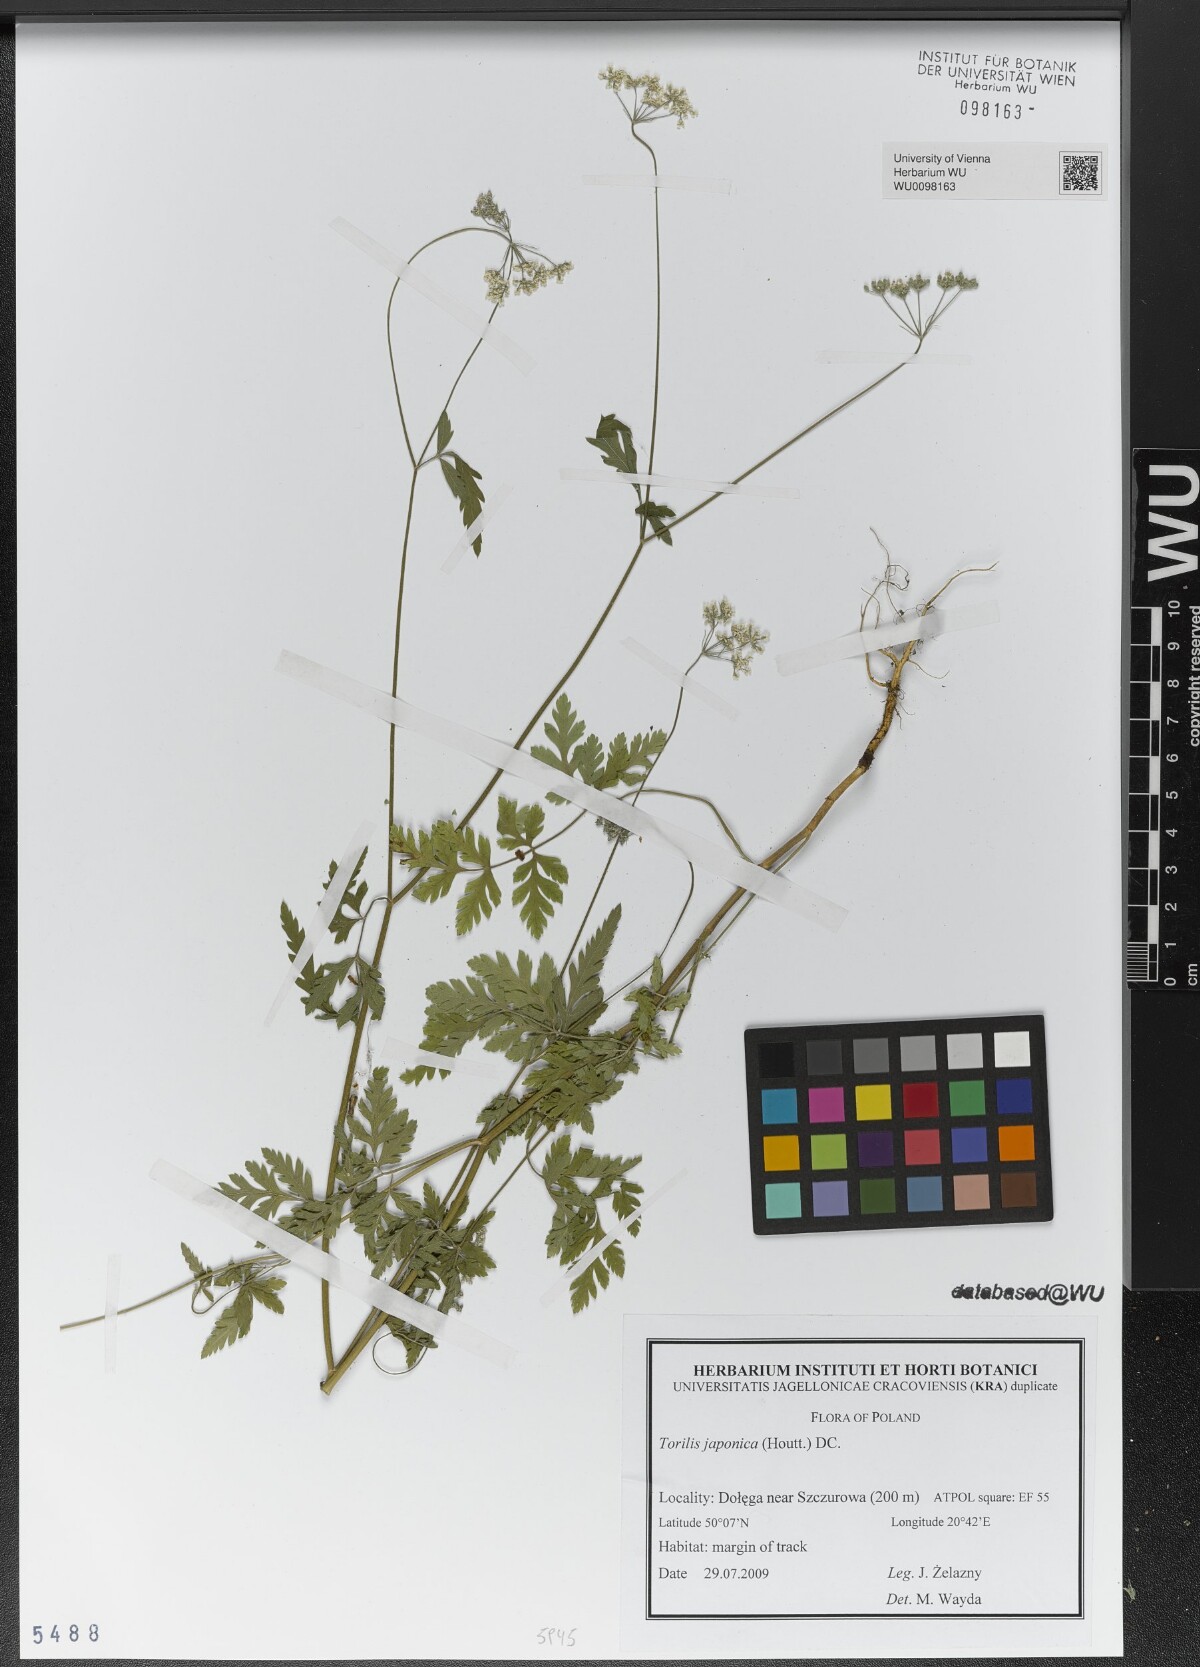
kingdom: Plantae
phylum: Tracheophyta
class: Magnoliopsida
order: Apiales
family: Apiaceae
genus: Torilis
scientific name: Torilis japonica
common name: Upright hedge-parsley
